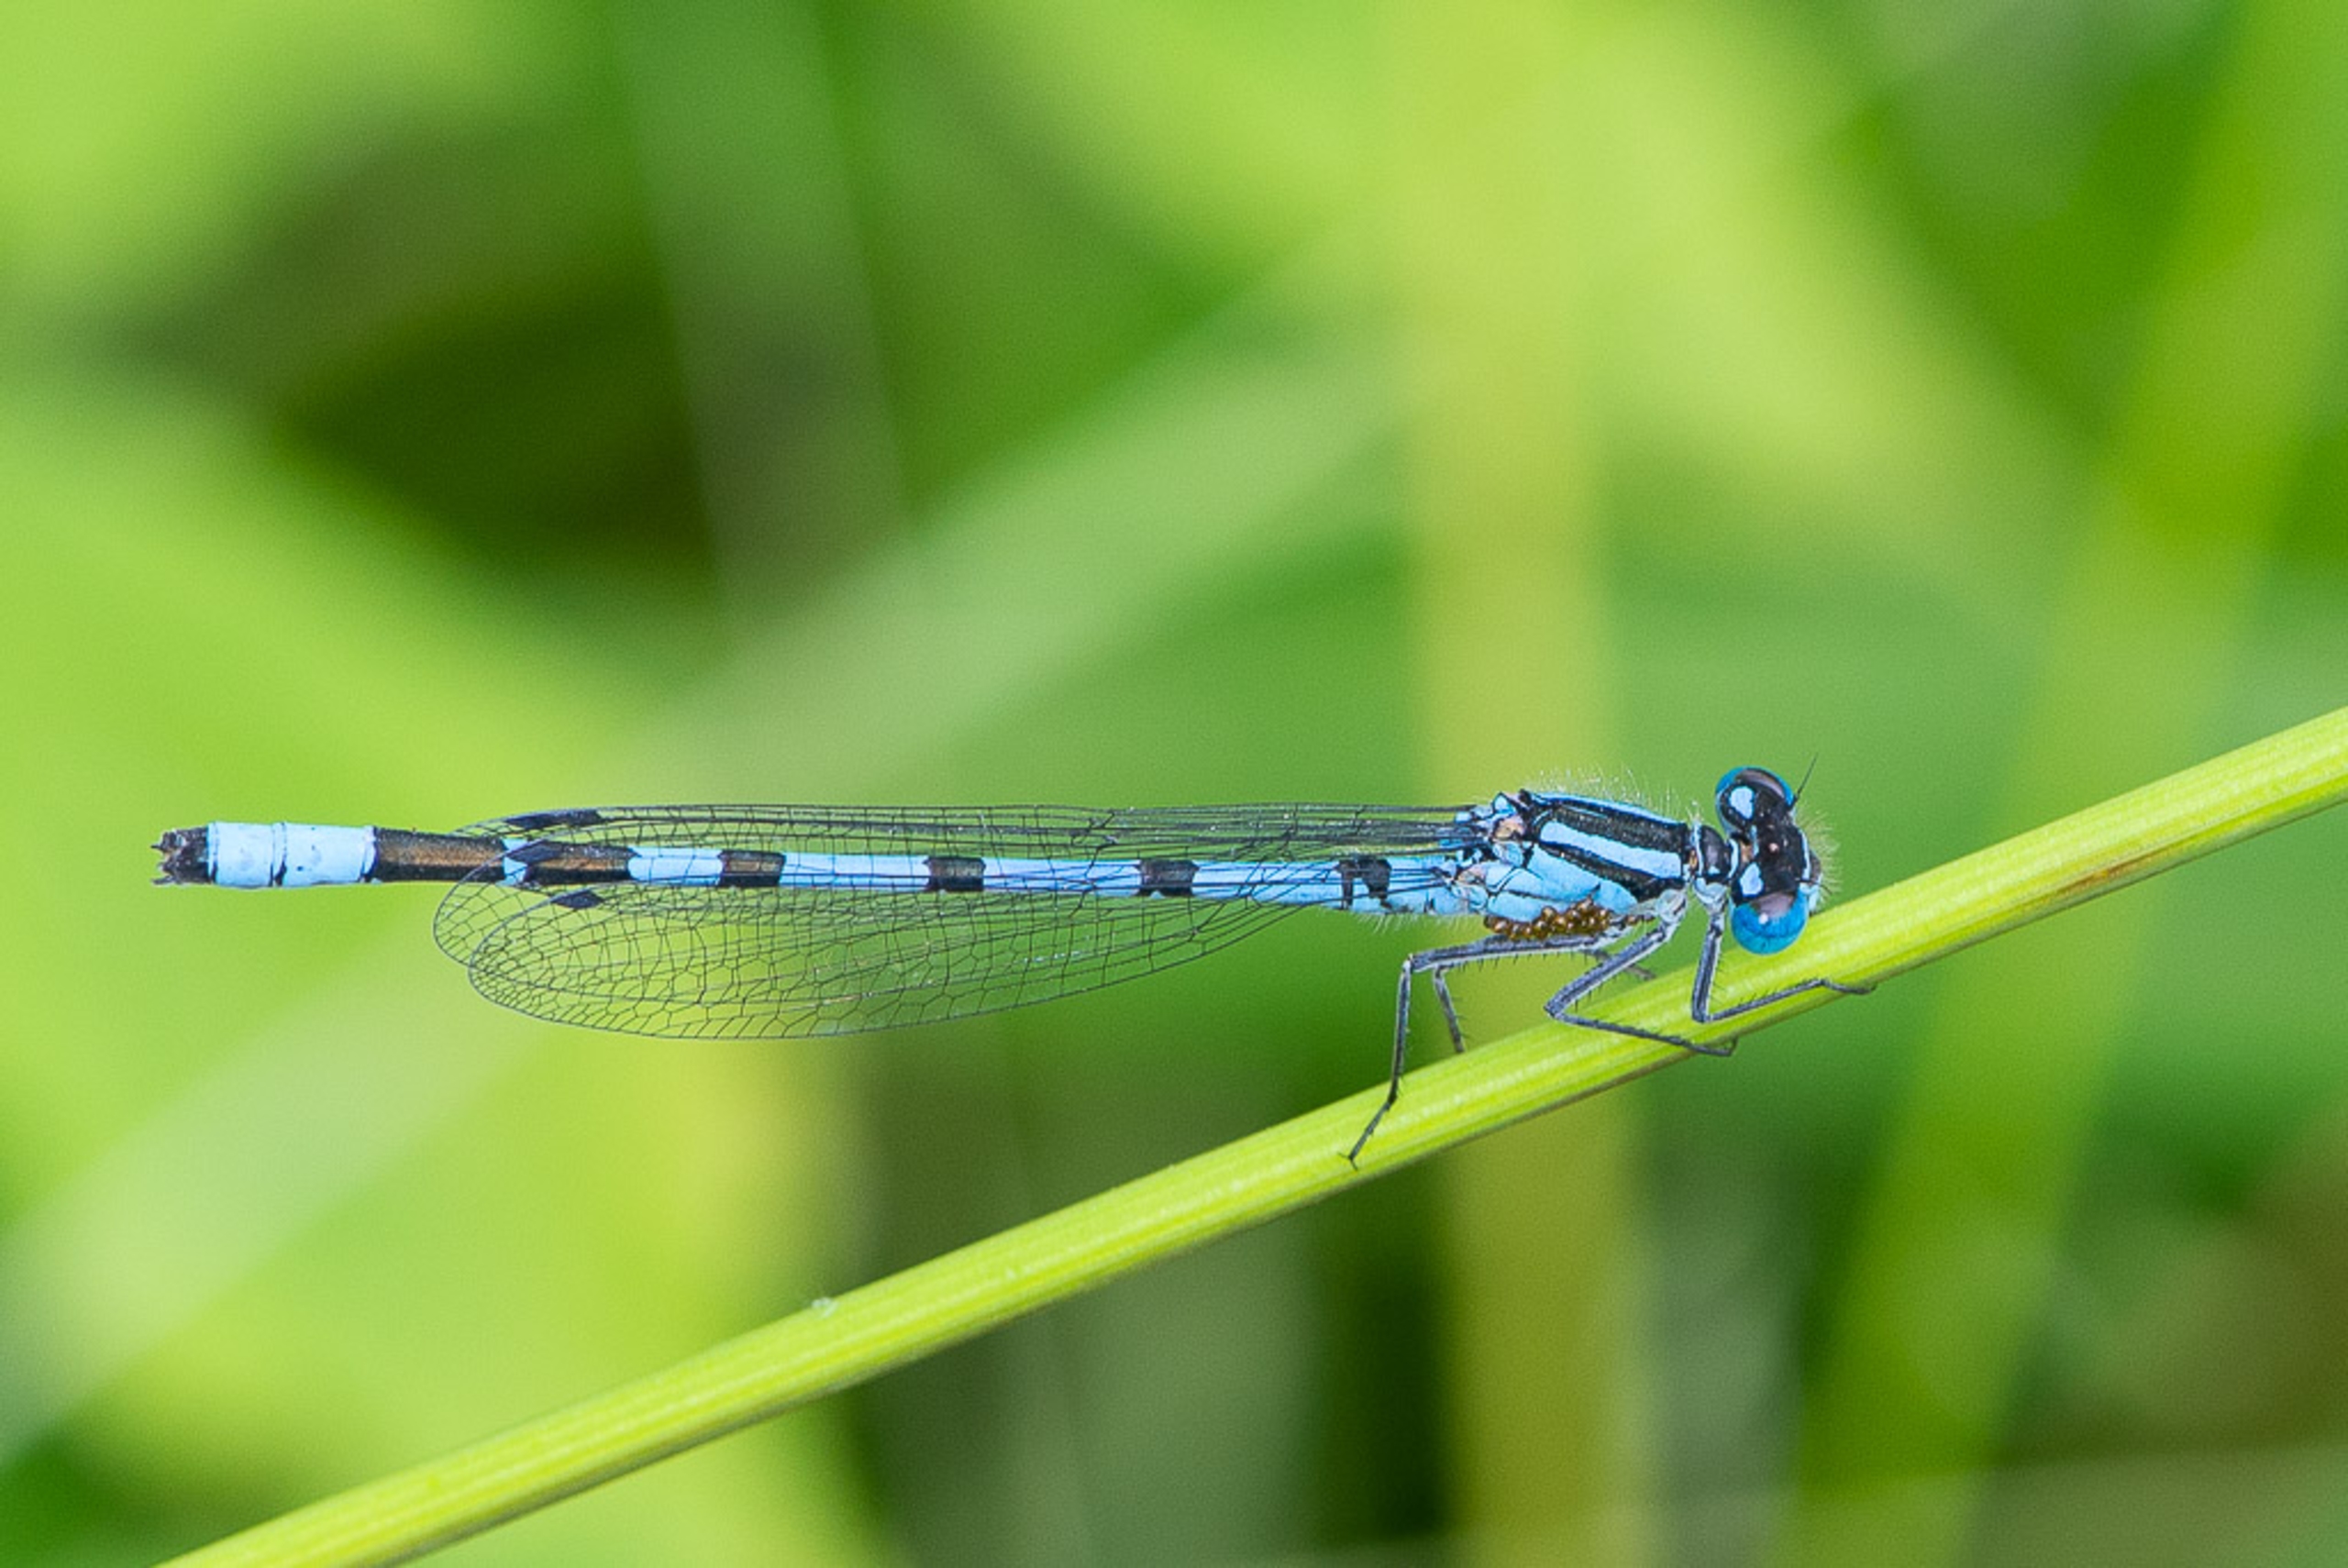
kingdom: Animalia
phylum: Arthropoda
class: Insecta
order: Odonata
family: Coenagrionidae
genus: Enallagma
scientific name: Enallagma cyathigerum
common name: Almindelig vandnymfe
